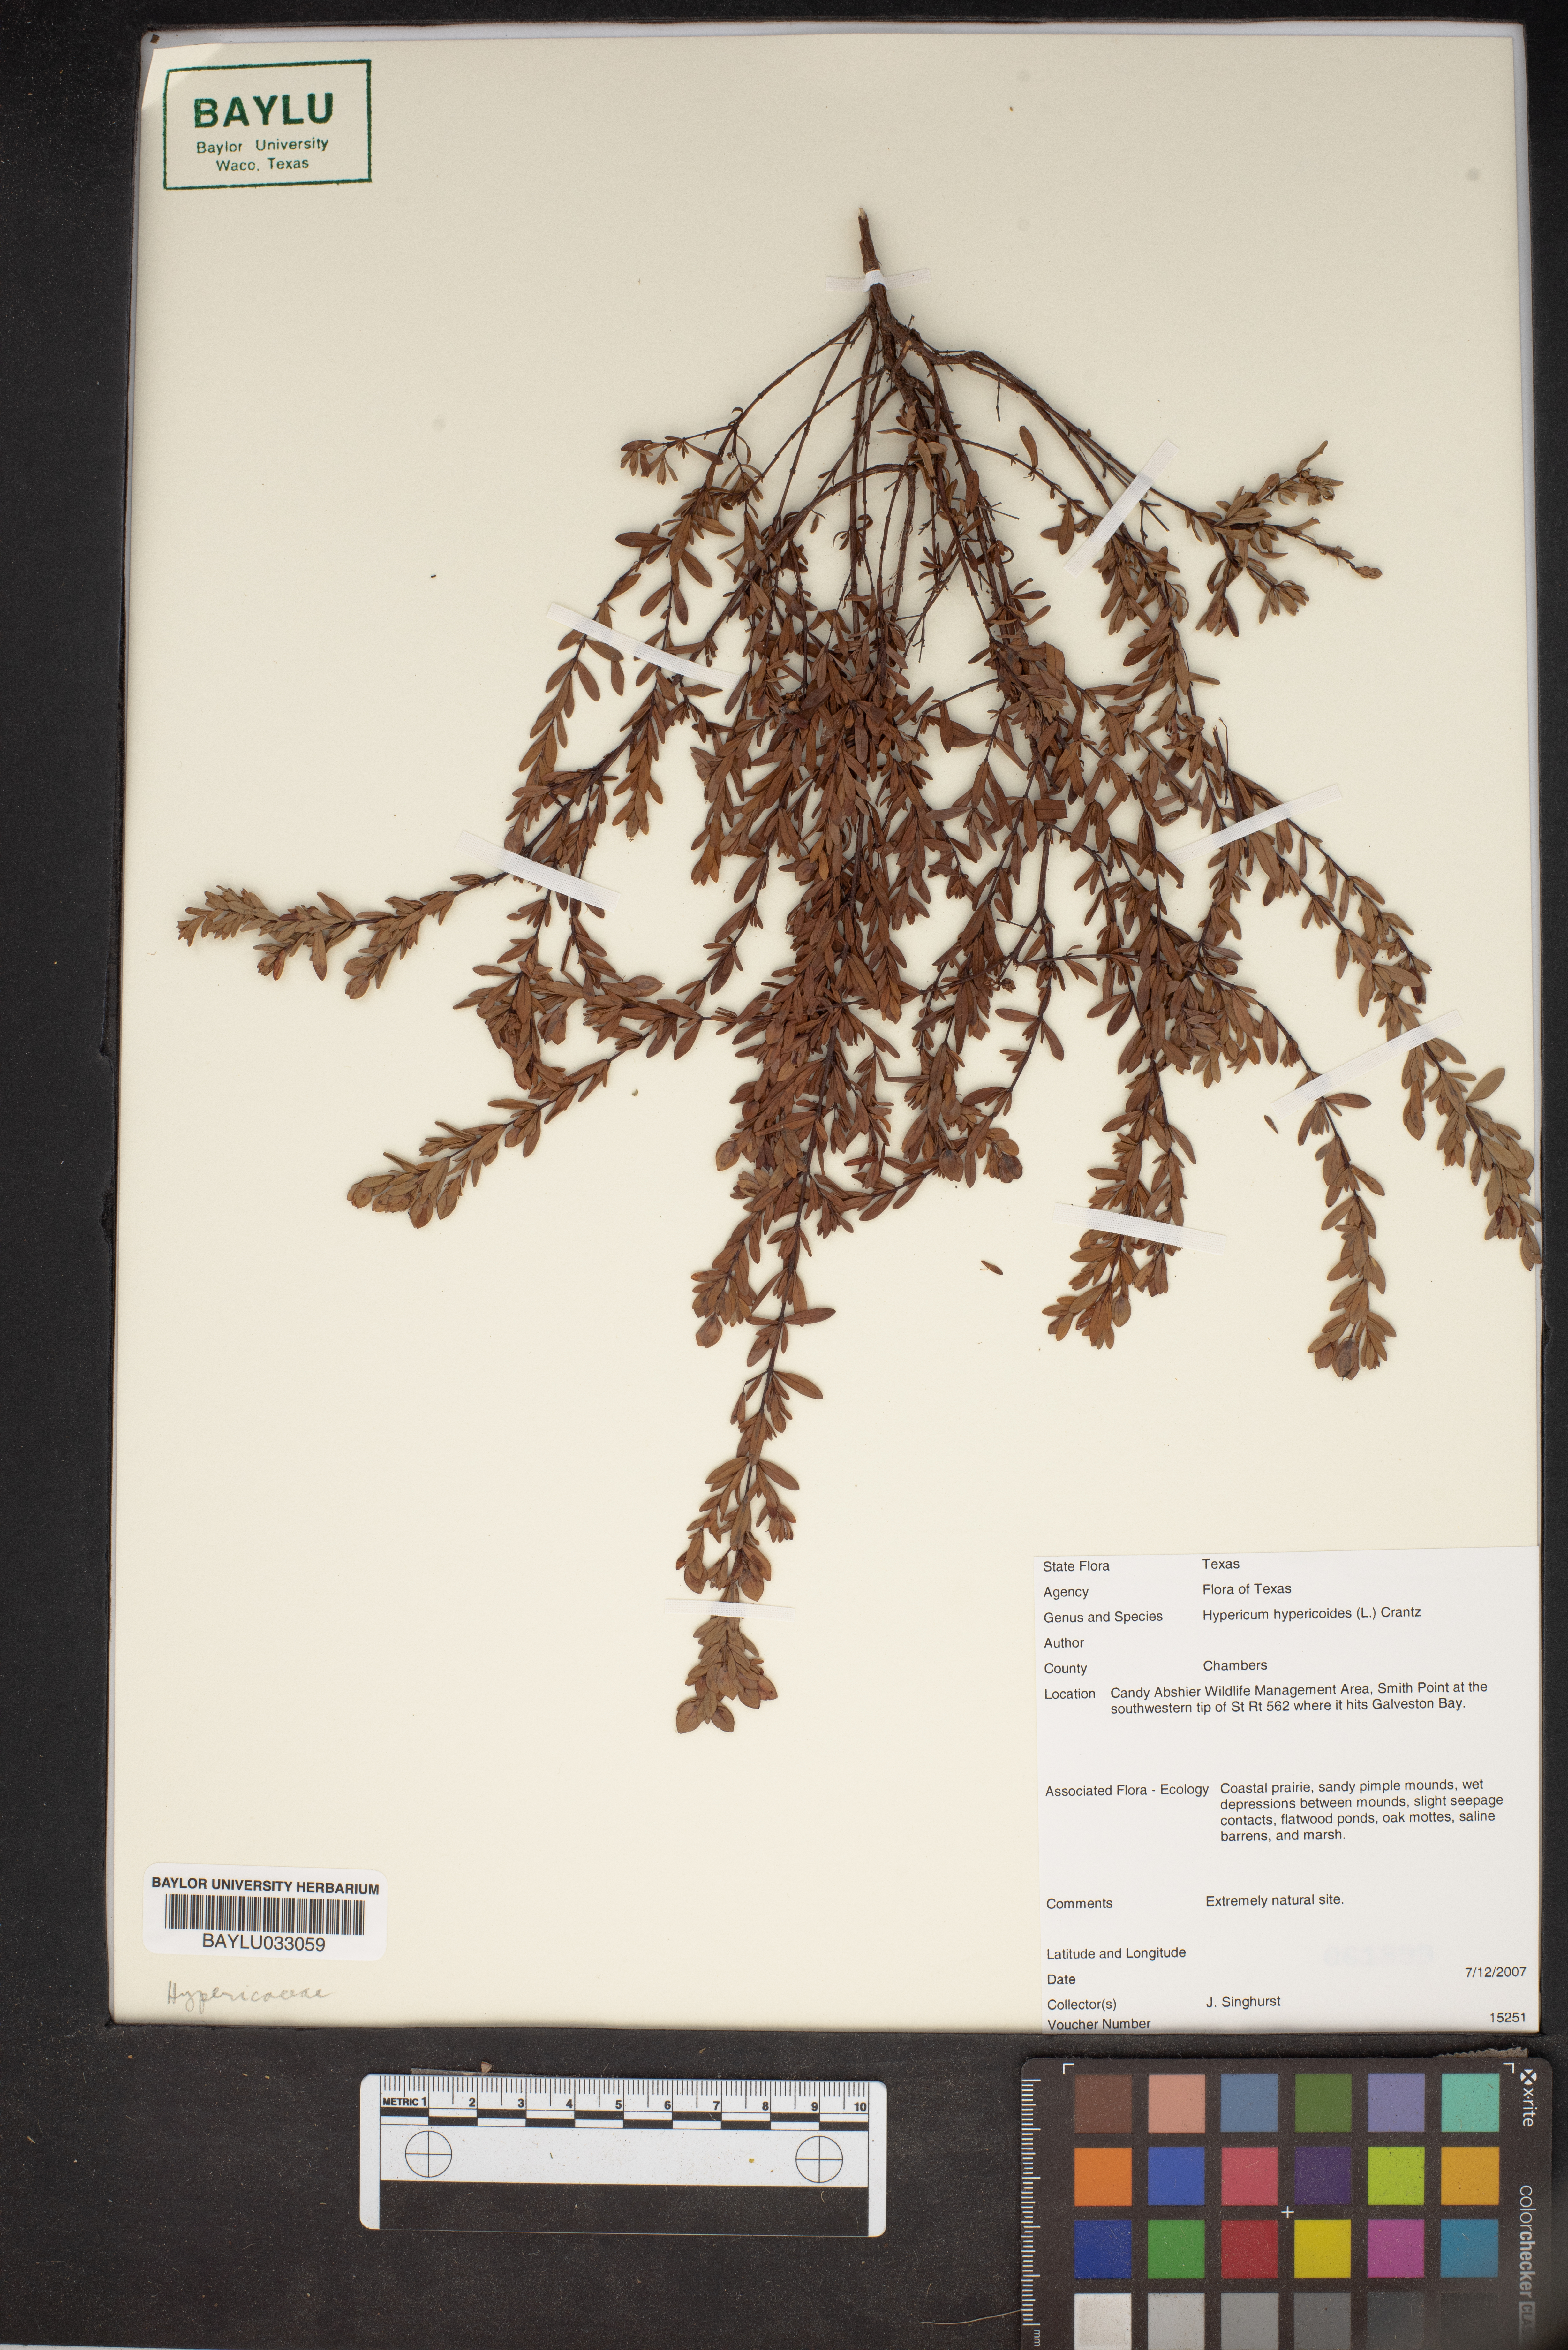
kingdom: Plantae
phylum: Tracheophyta
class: Magnoliopsida
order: Malpighiales
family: Hypericaceae
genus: Hypericum
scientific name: Hypericum hypericoides
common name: St. andrew's cross
